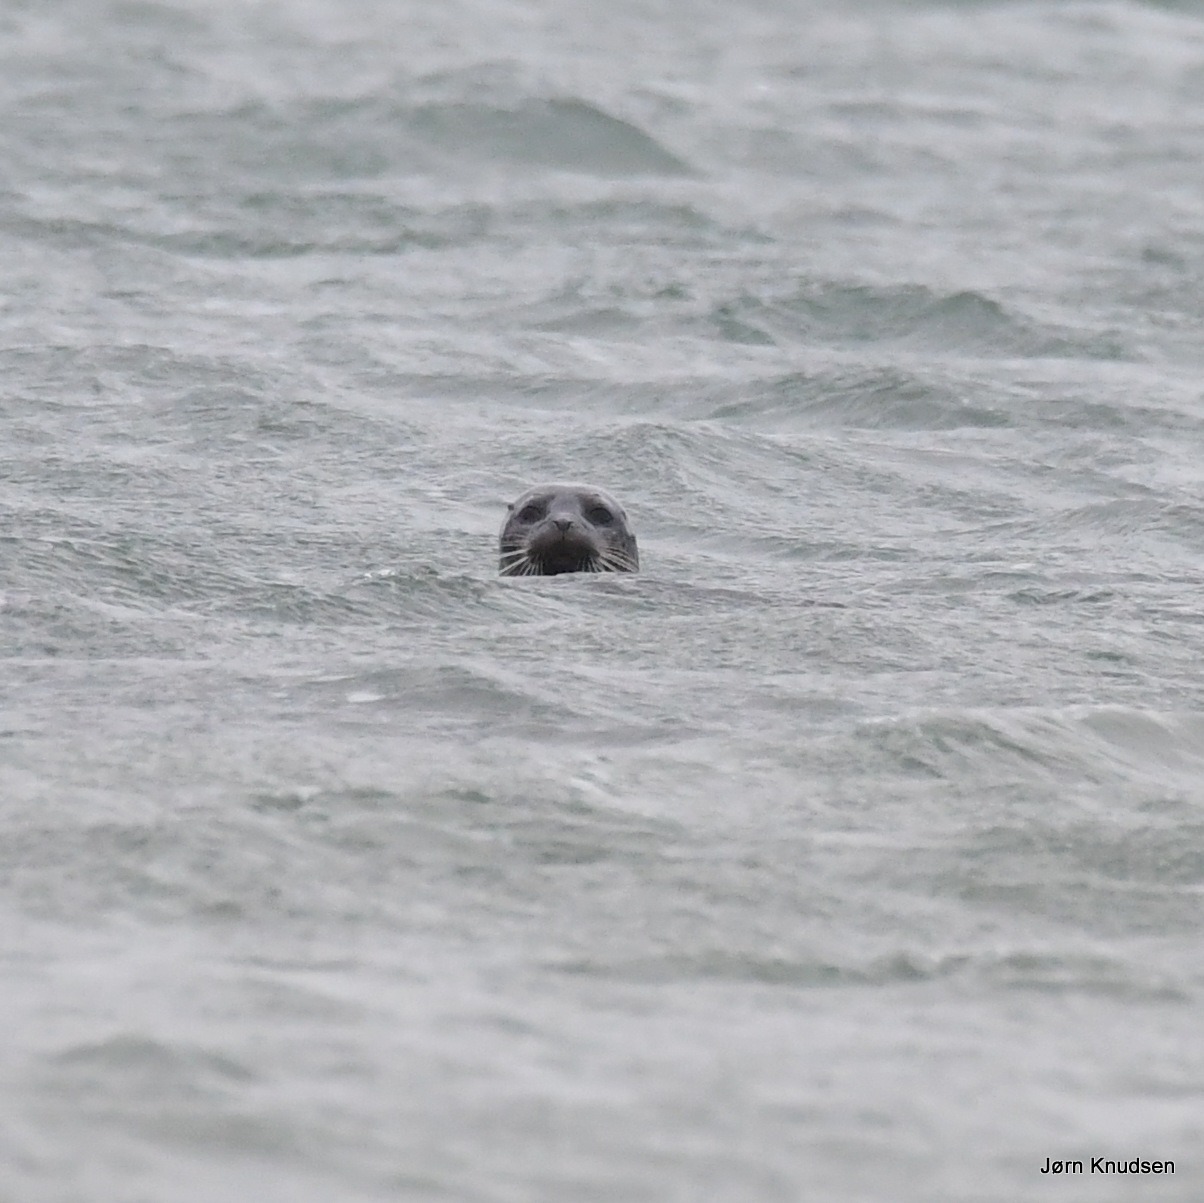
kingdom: Animalia
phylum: Chordata
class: Mammalia
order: Carnivora
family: Phocidae
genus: Phoca
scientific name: Phoca vitulina
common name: Spættet sæl
